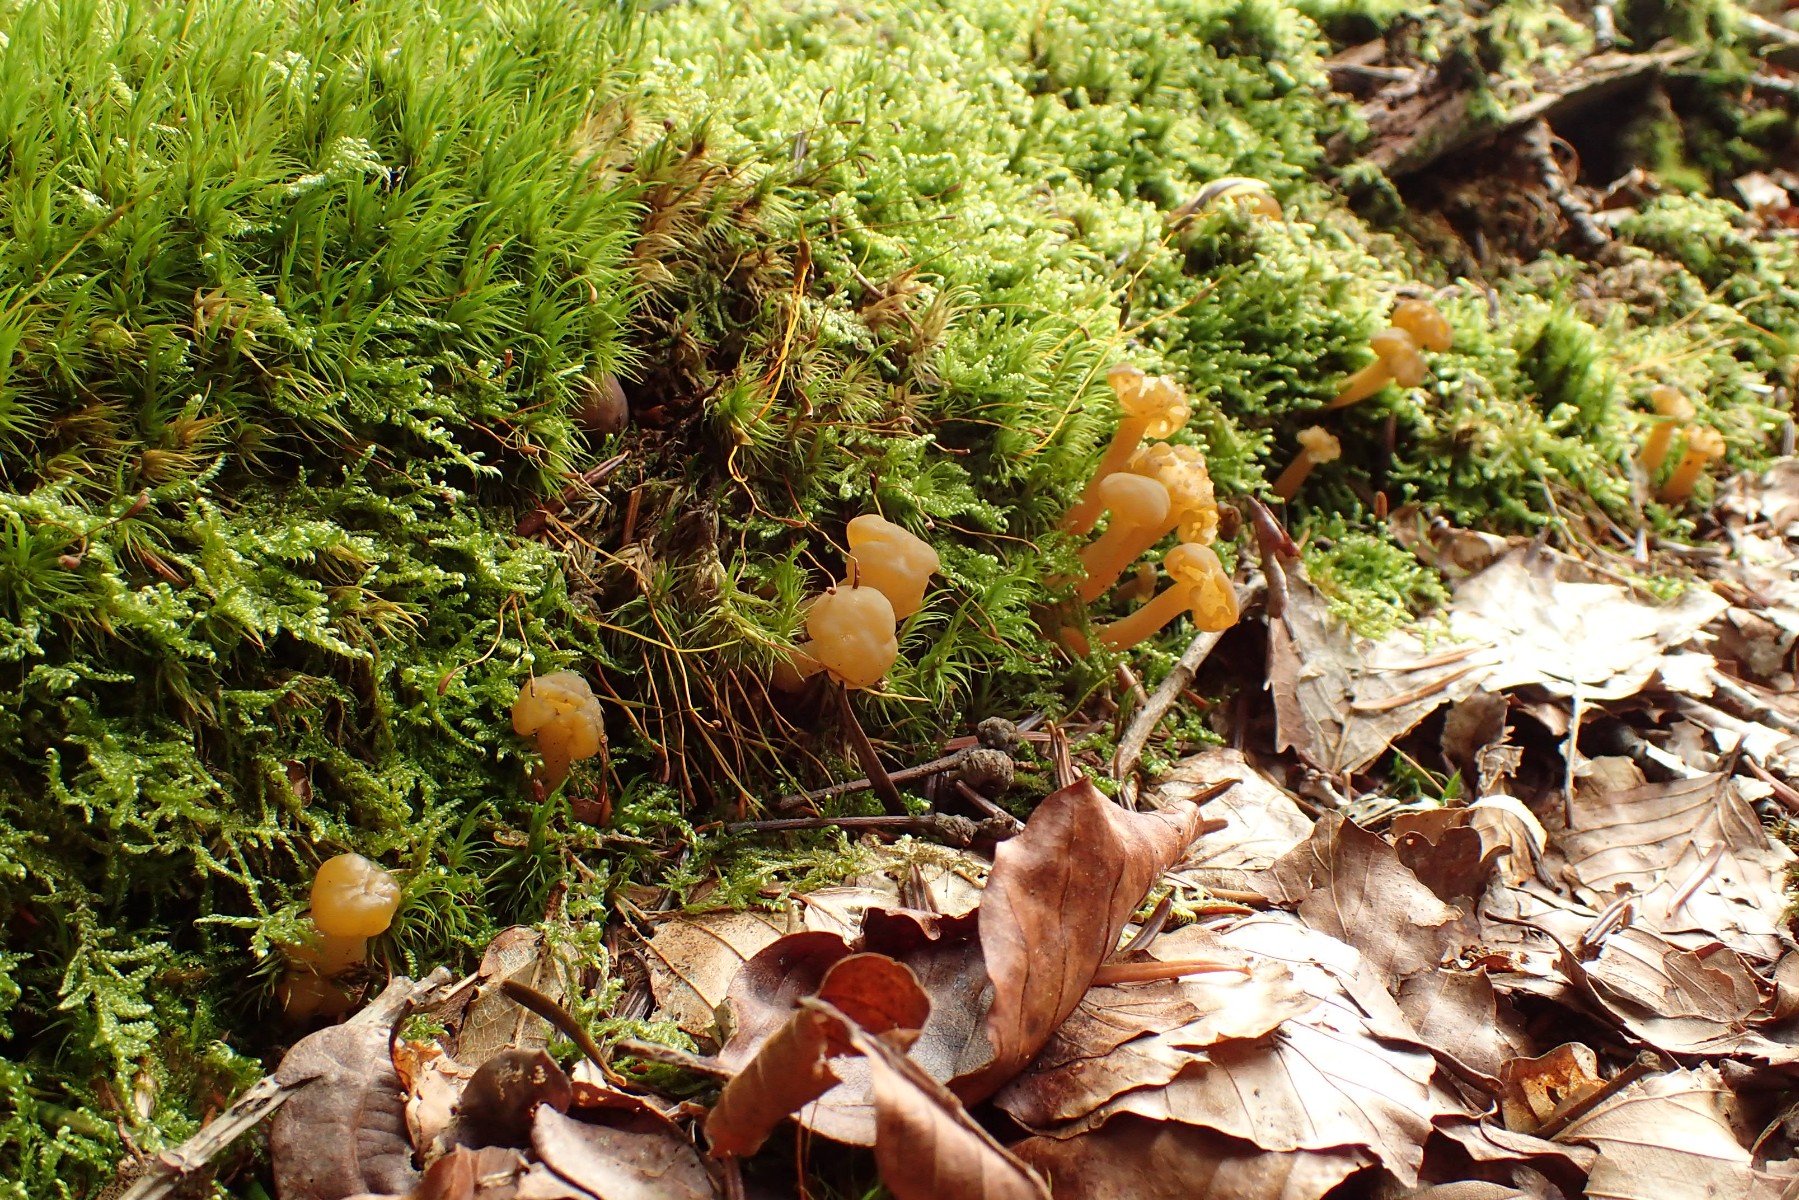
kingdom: Fungi
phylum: Ascomycota
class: Leotiomycetes
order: Leotiales
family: Leotiaceae
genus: Leotia
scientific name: Leotia lubrica
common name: ravsvamp
